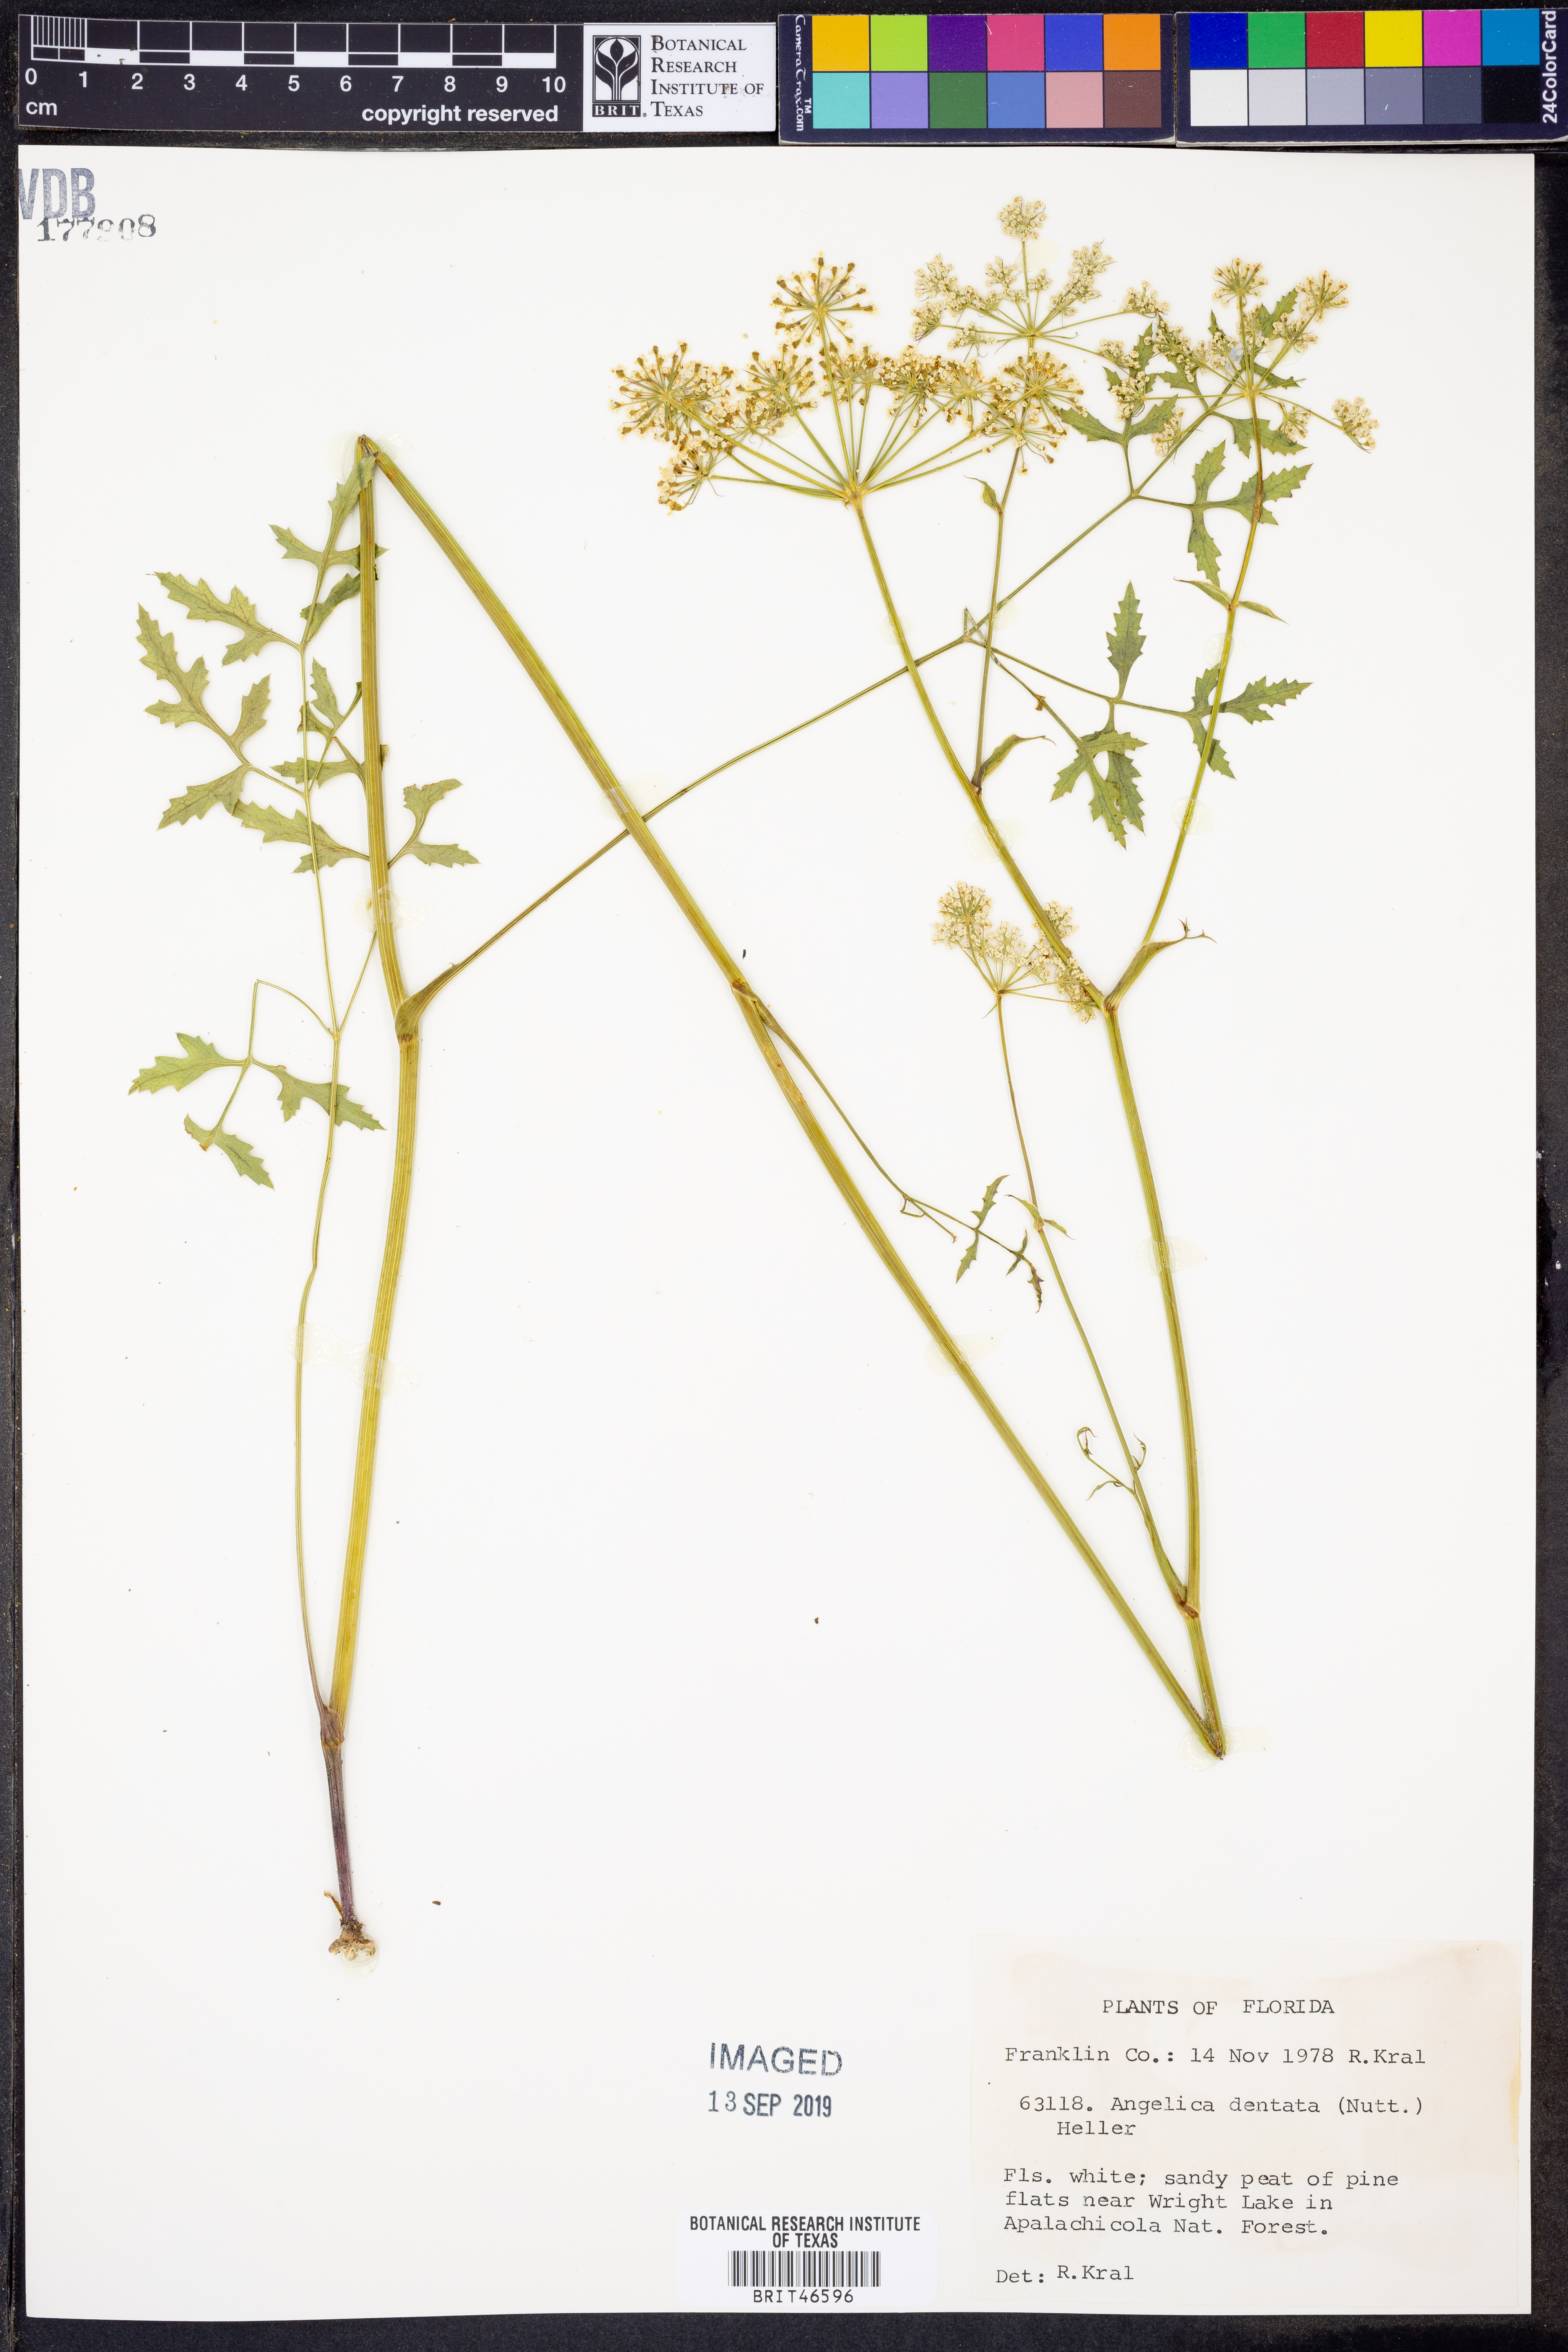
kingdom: Plantae
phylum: Tracheophyta
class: Magnoliopsida
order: Apiales
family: Apiaceae
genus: Angelica
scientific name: Angelica venenosa
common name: Hairy angelica
